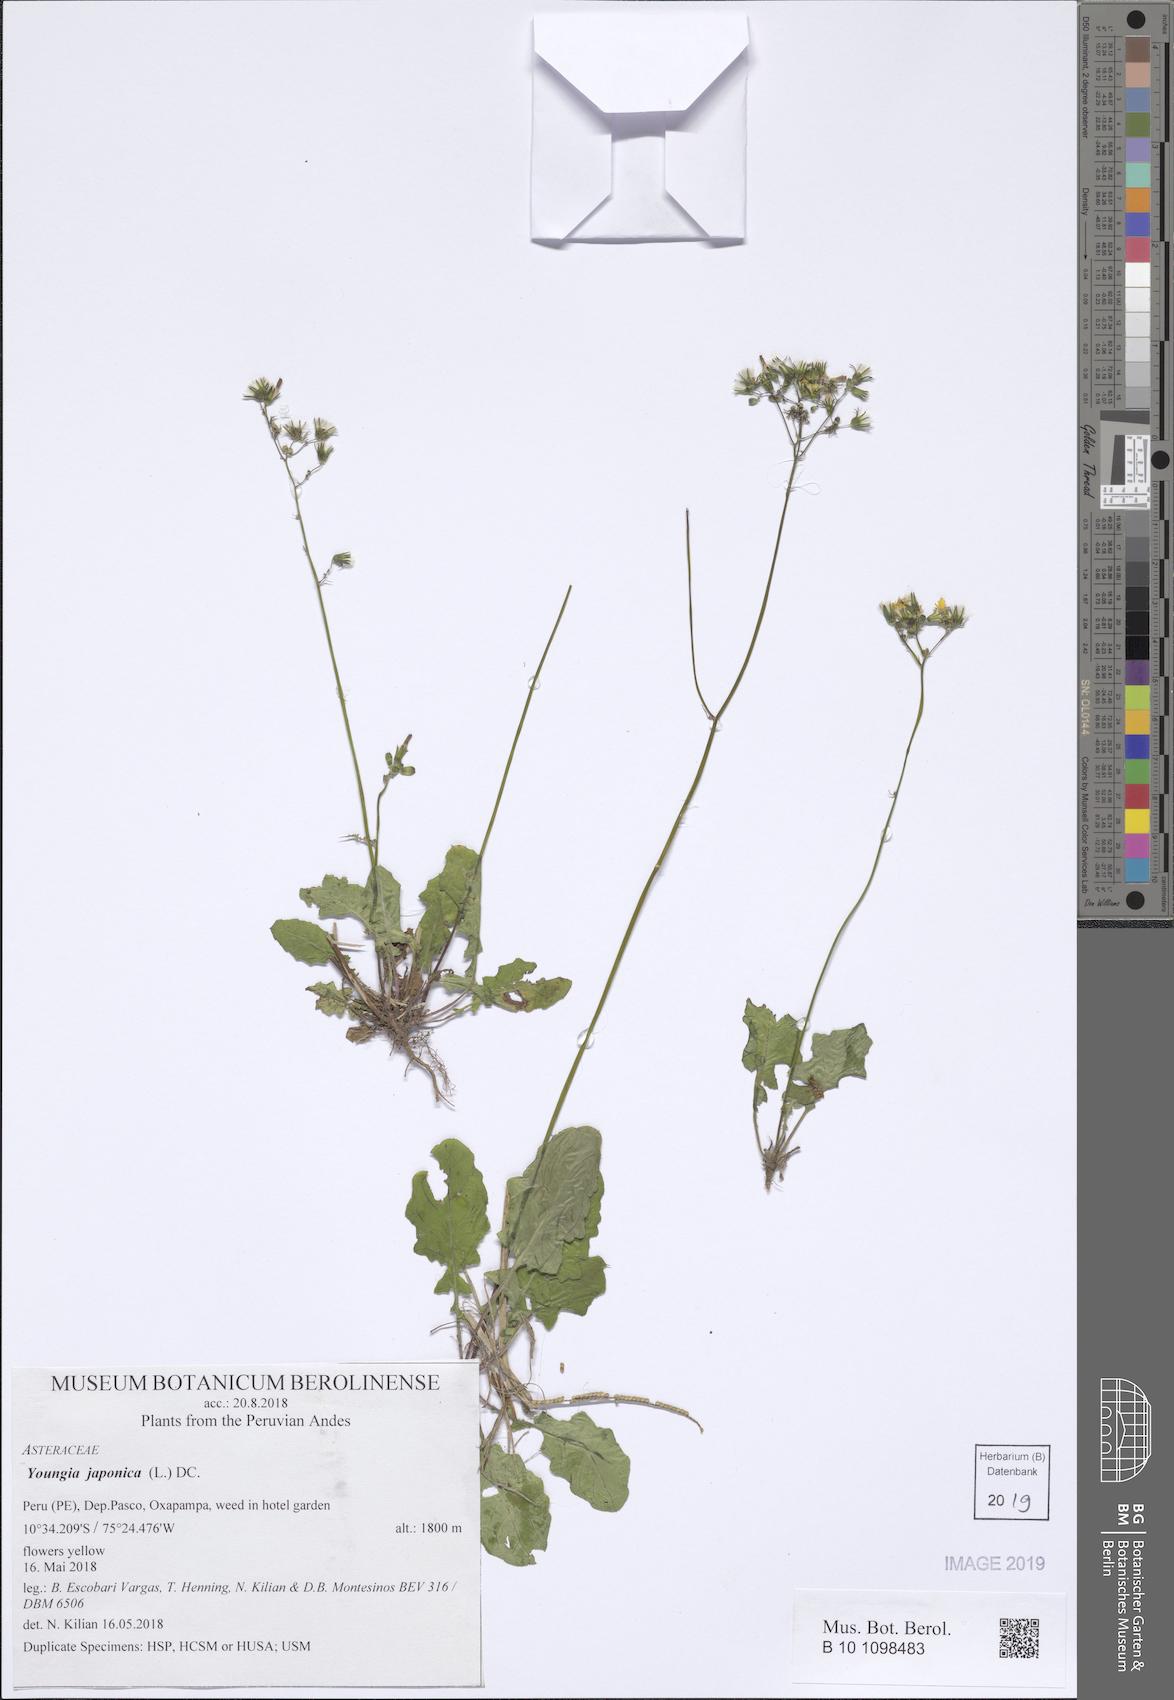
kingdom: Plantae
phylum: Tracheophyta
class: Magnoliopsida
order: Asterales
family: Asteraceae
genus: Youngia
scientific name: Youngia japonica
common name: Oriental false hawksbeard
